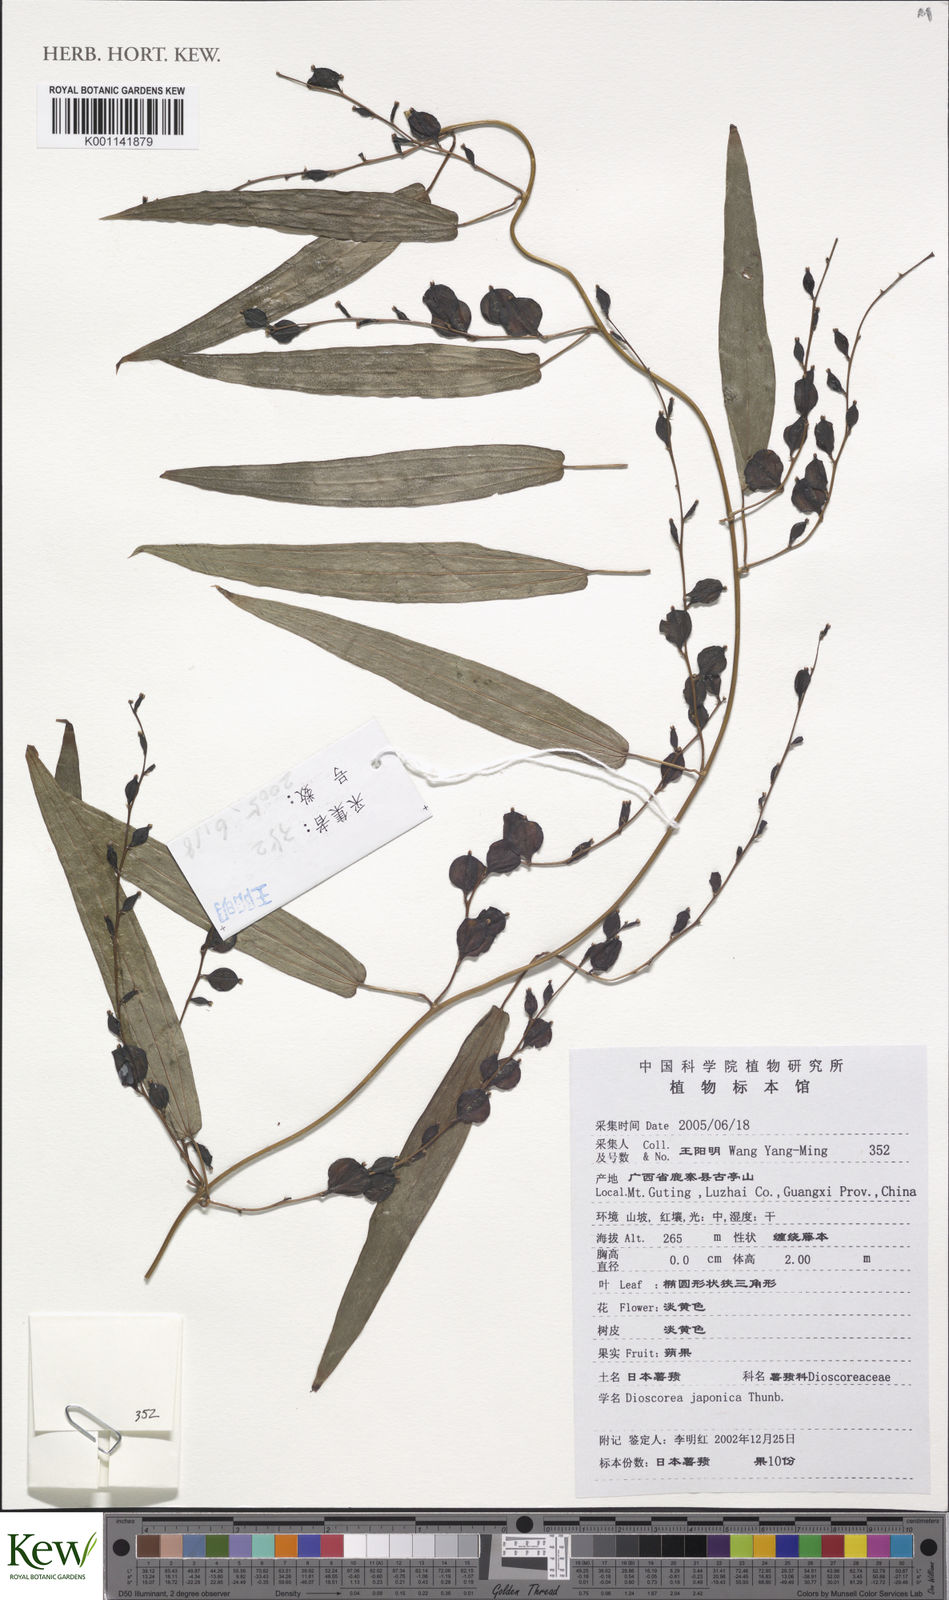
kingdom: Plantae
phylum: Tracheophyta
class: Liliopsida
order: Dioscoreales
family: Dioscoreaceae
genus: Dioscorea
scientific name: Dioscorea japonica
